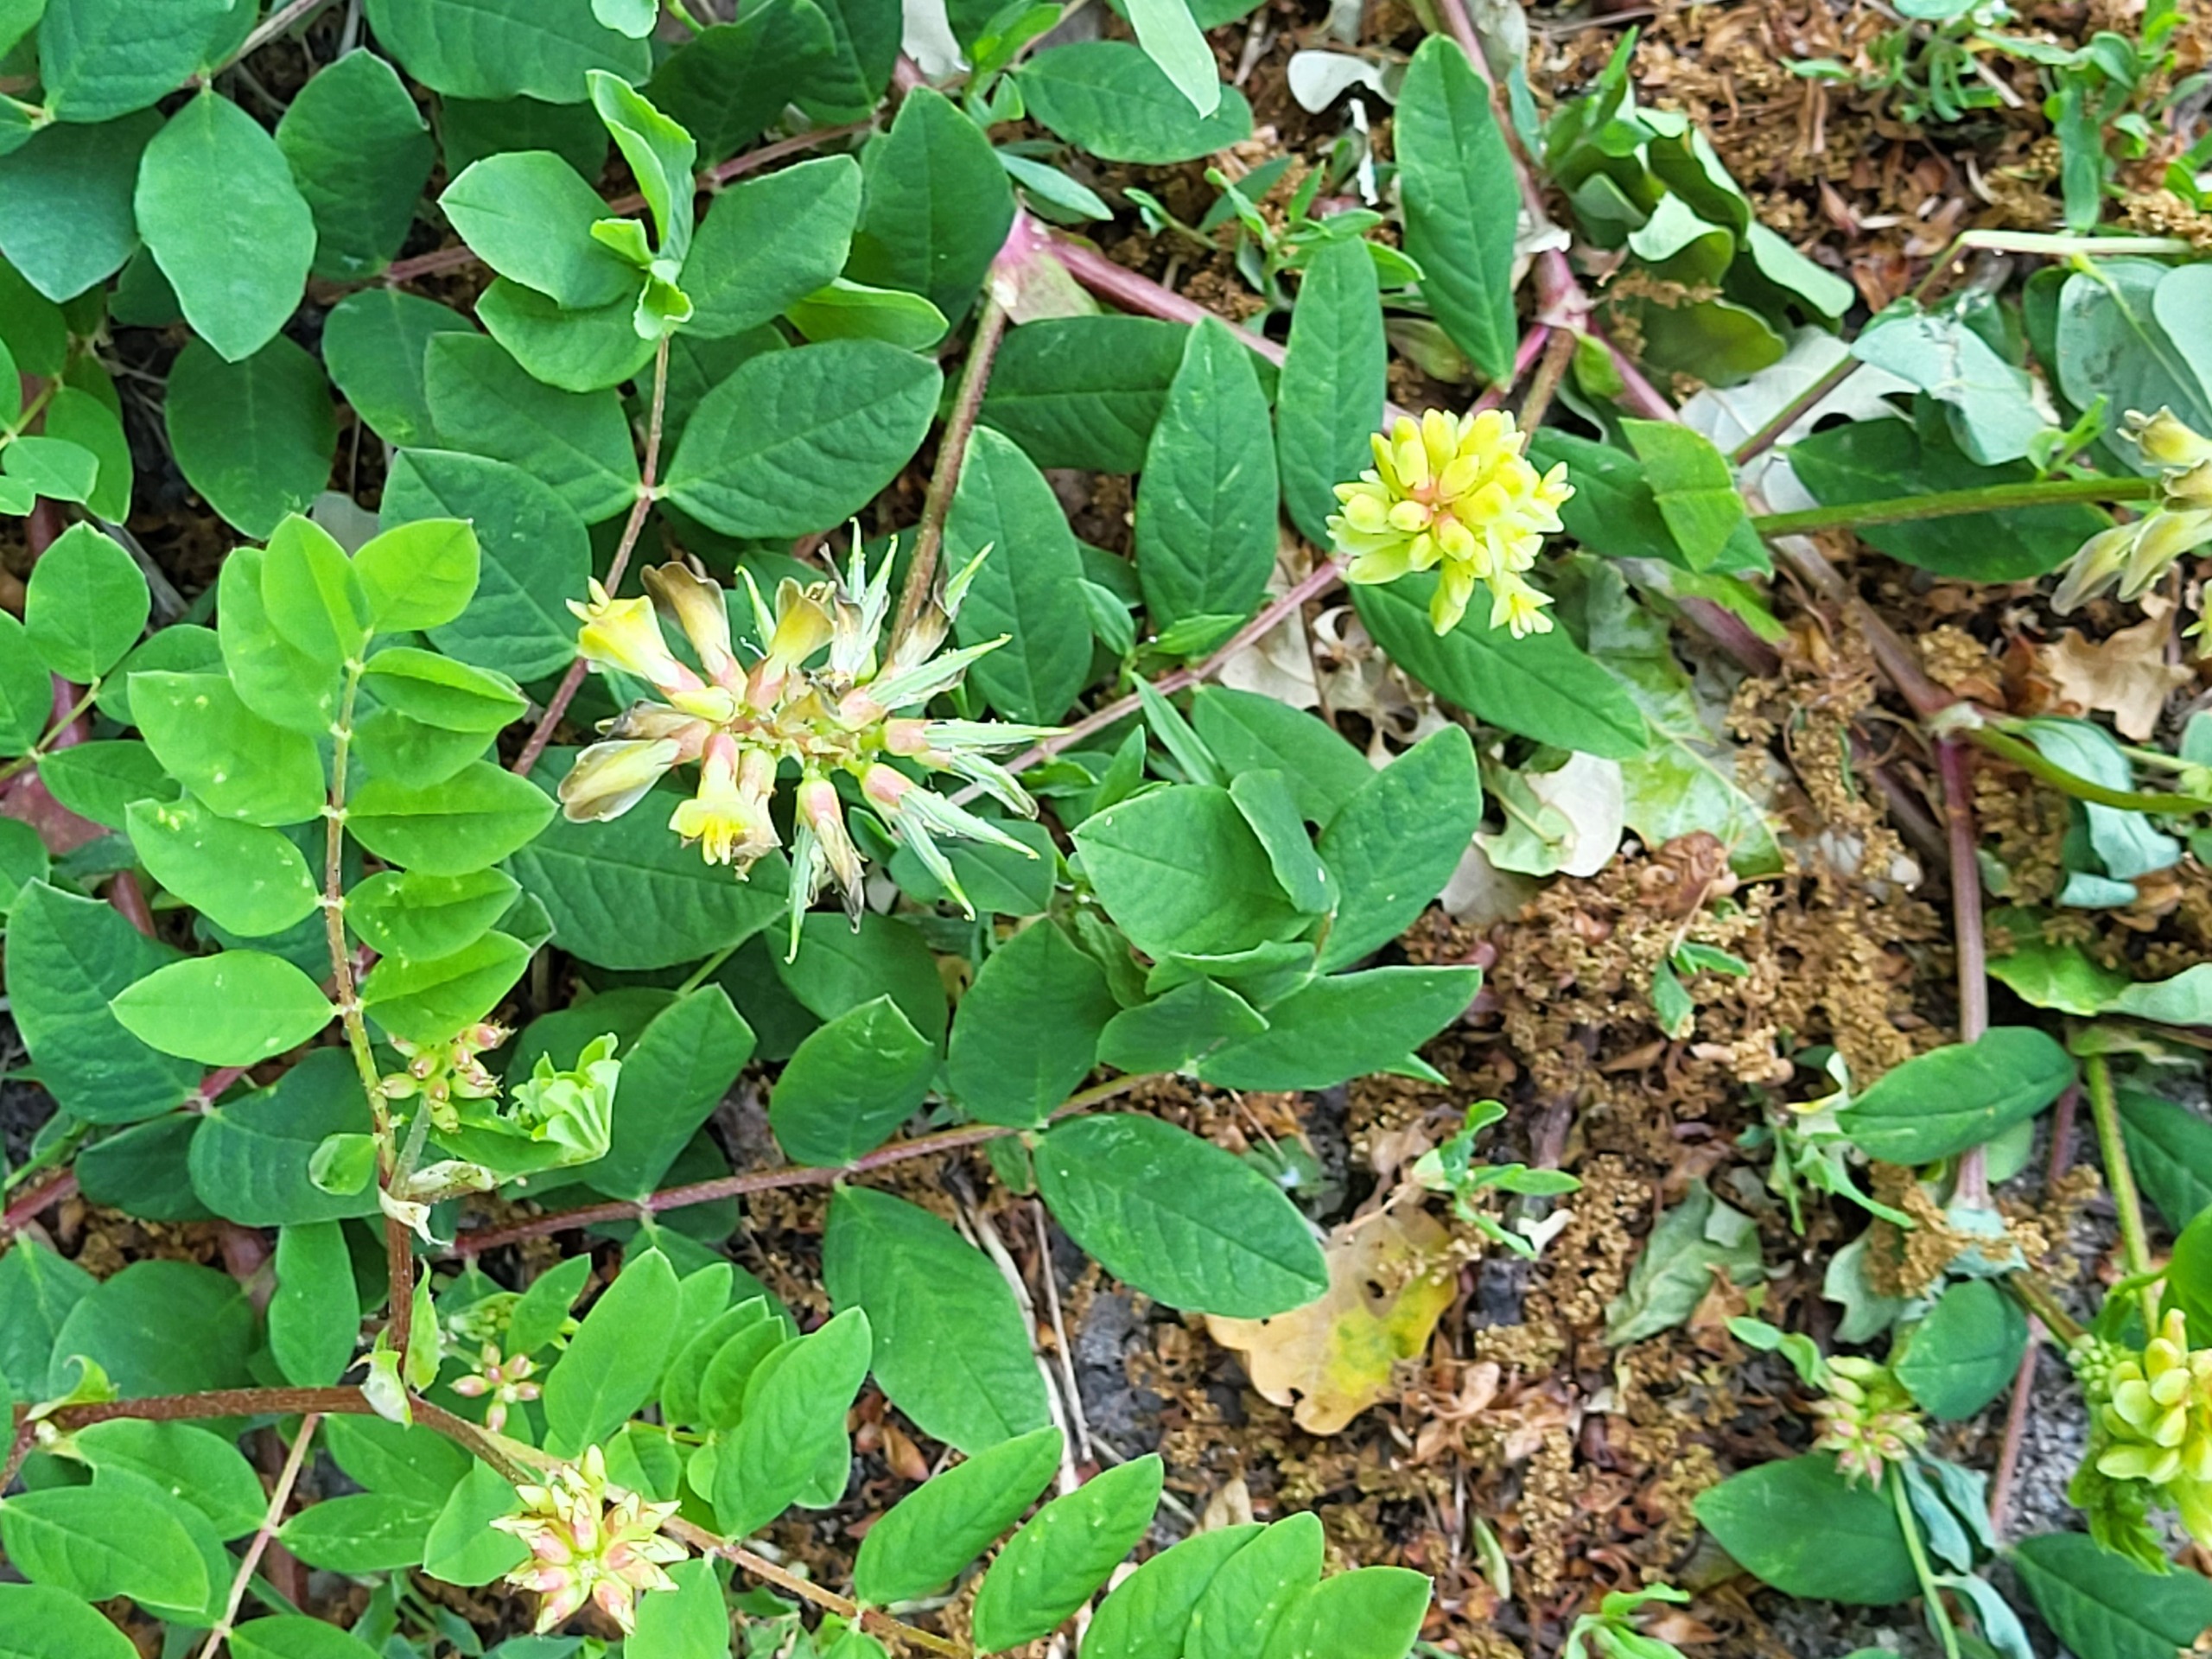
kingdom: Plantae
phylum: Tracheophyta
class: Magnoliopsida
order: Fabales
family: Fabaceae
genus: Astragalus
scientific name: Astragalus glycyphyllos
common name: Sød astragel
